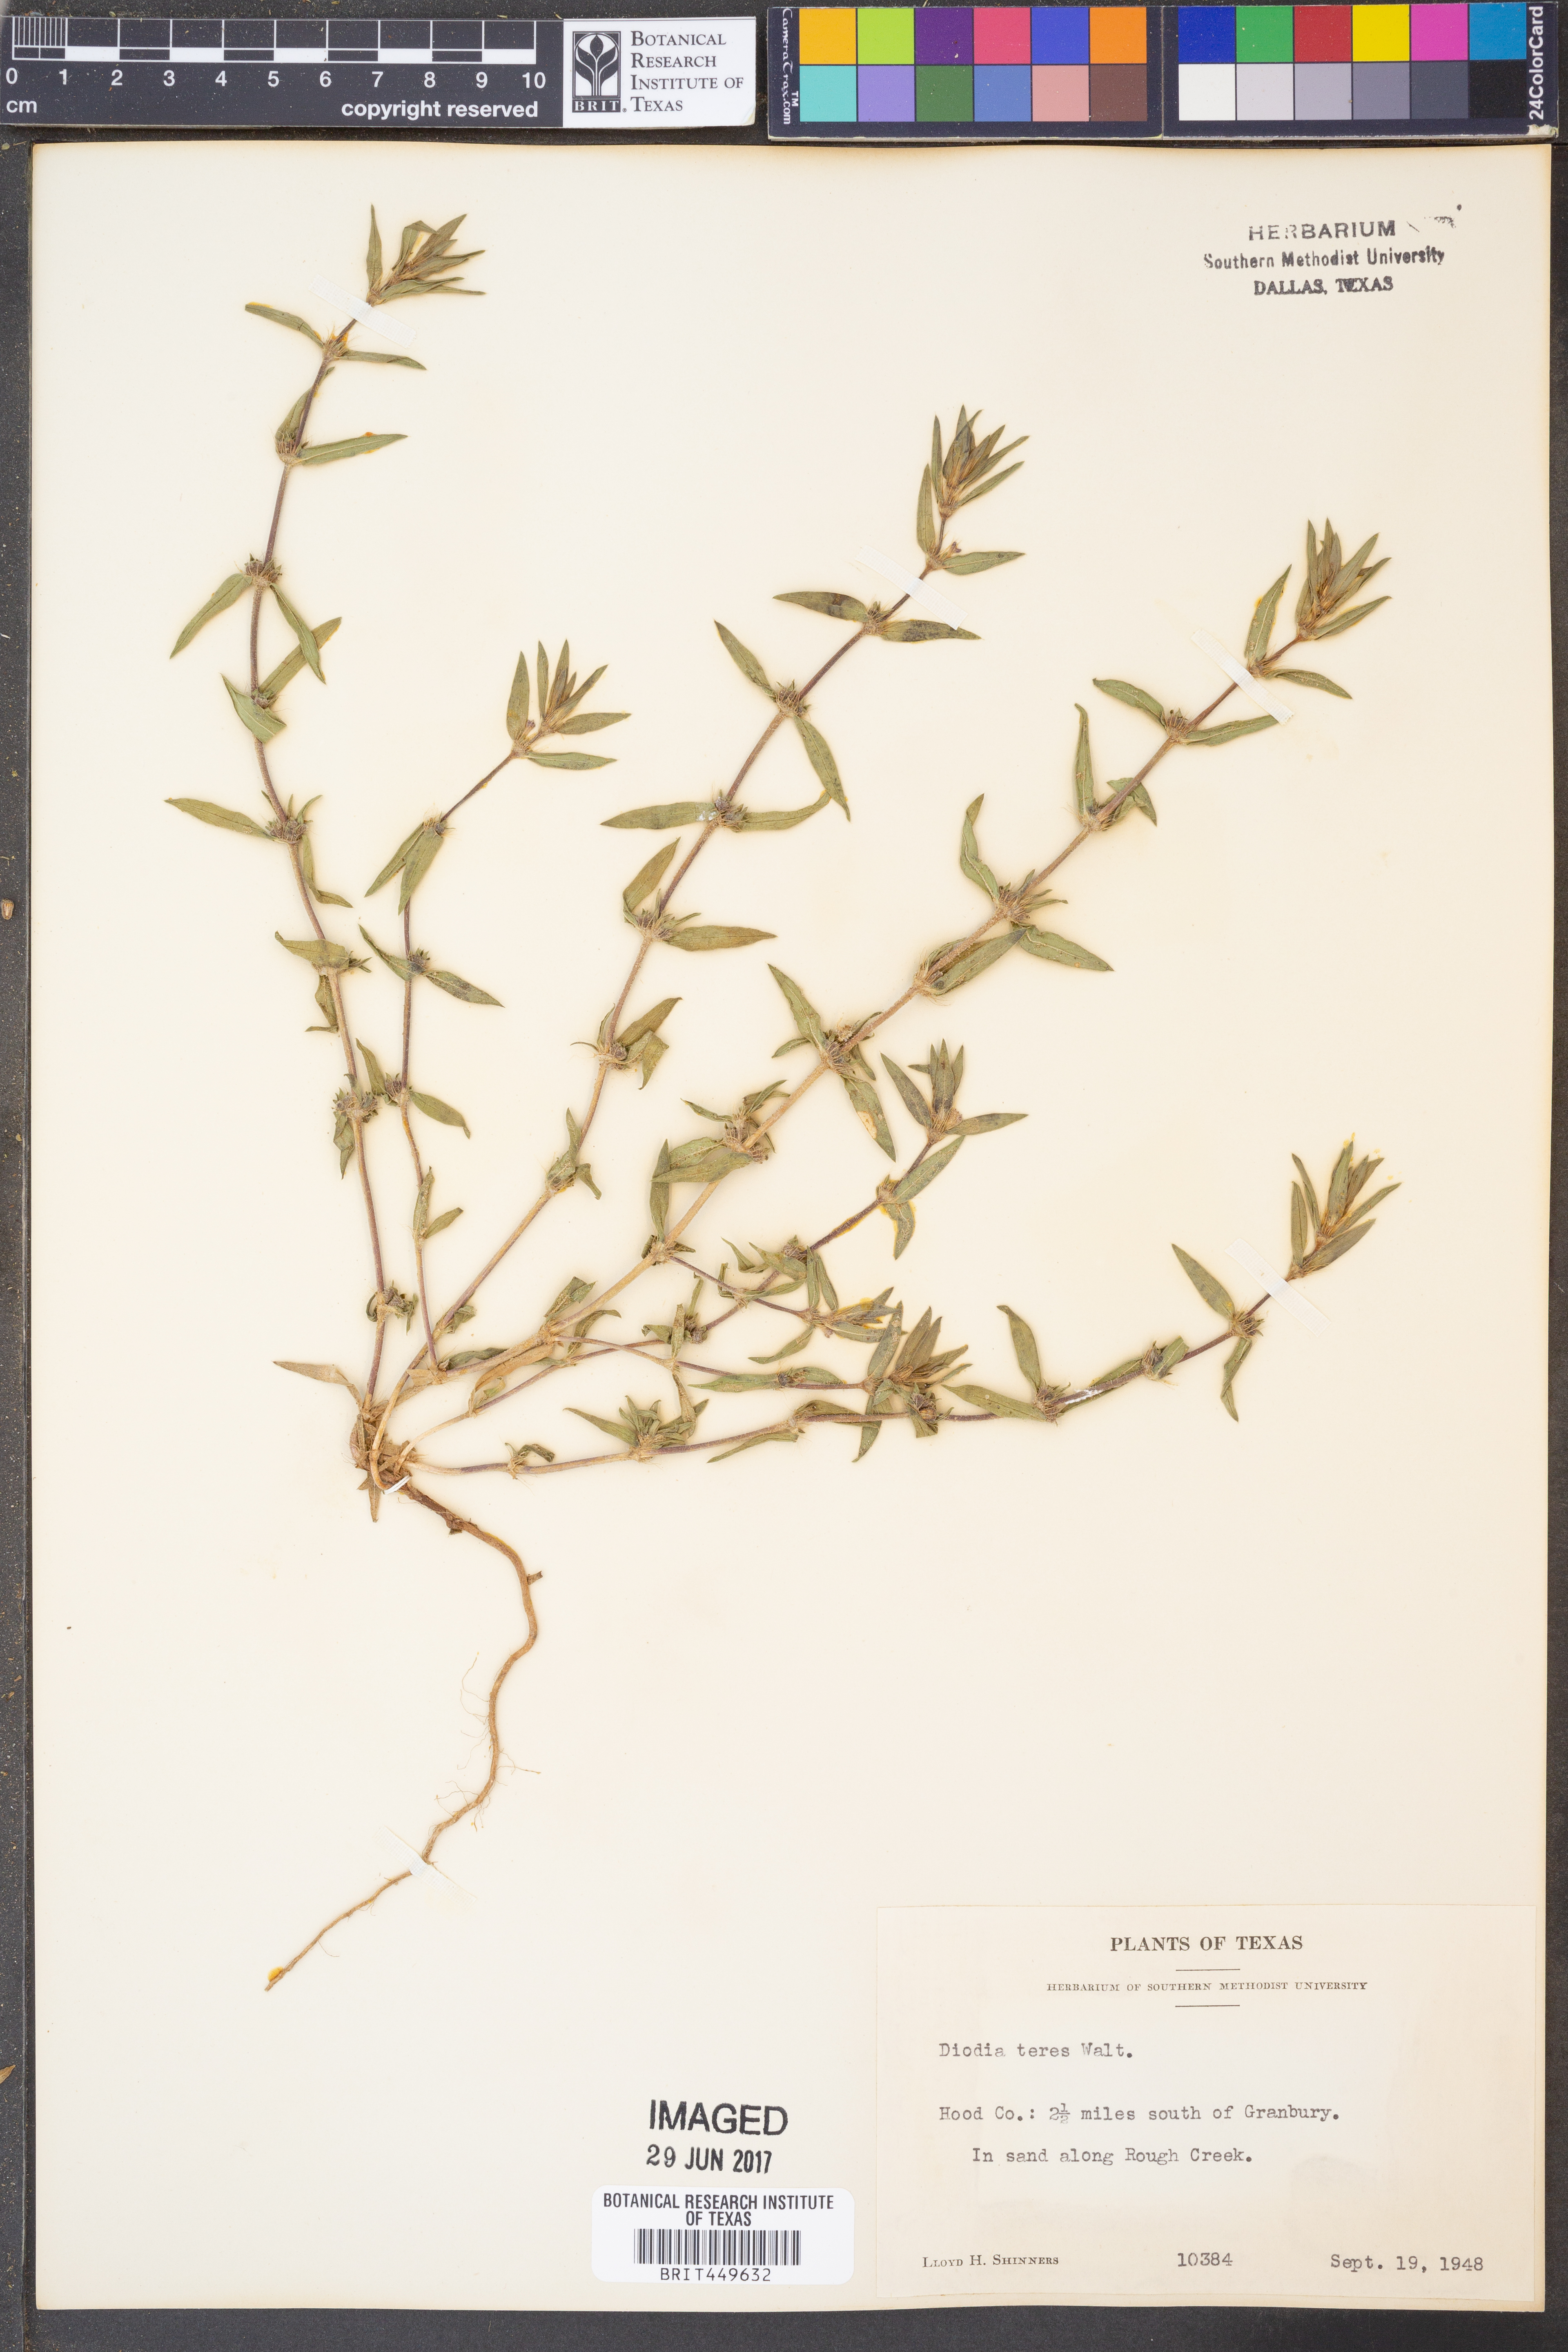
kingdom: Plantae
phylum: Tracheophyta
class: Magnoliopsida
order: Gentianales
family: Rubiaceae
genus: Hexasepalum
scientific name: Hexasepalum teres
